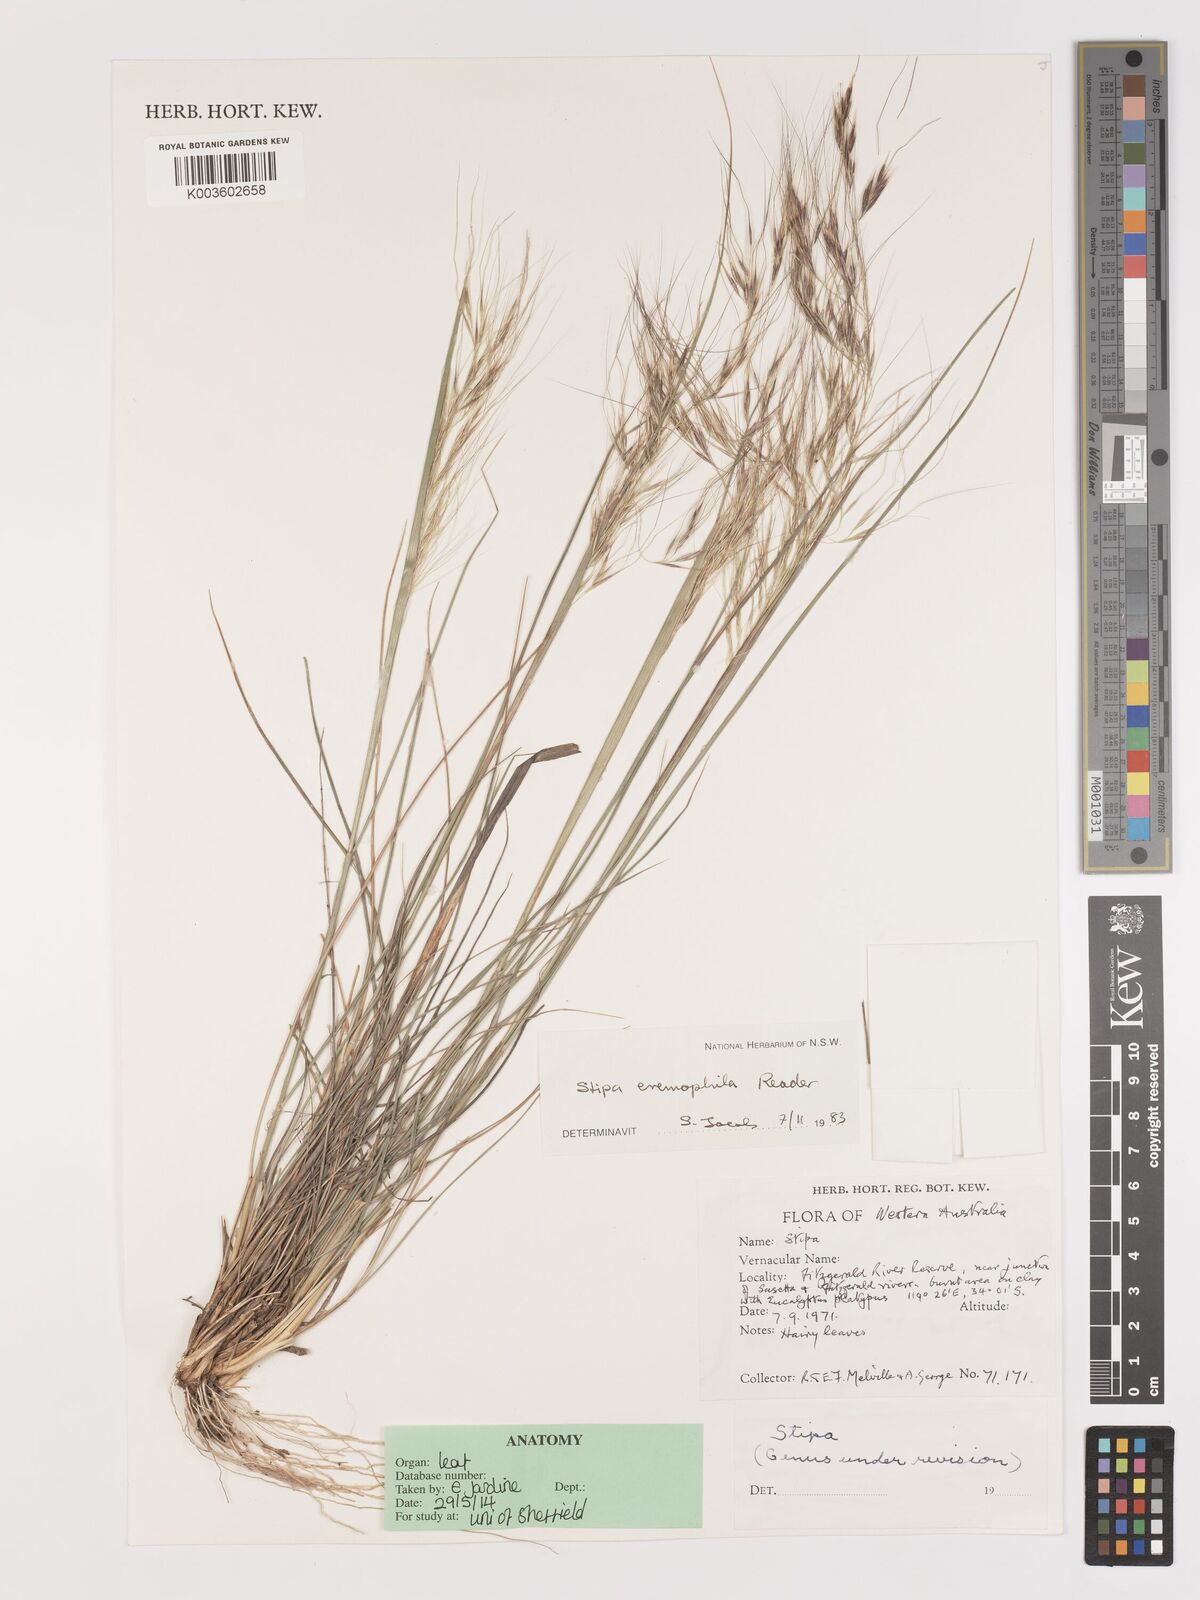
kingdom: Plantae
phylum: Tracheophyta
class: Liliopsida
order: Poales
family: Poaceae
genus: Austrostipa
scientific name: Austrostipa eremophila
